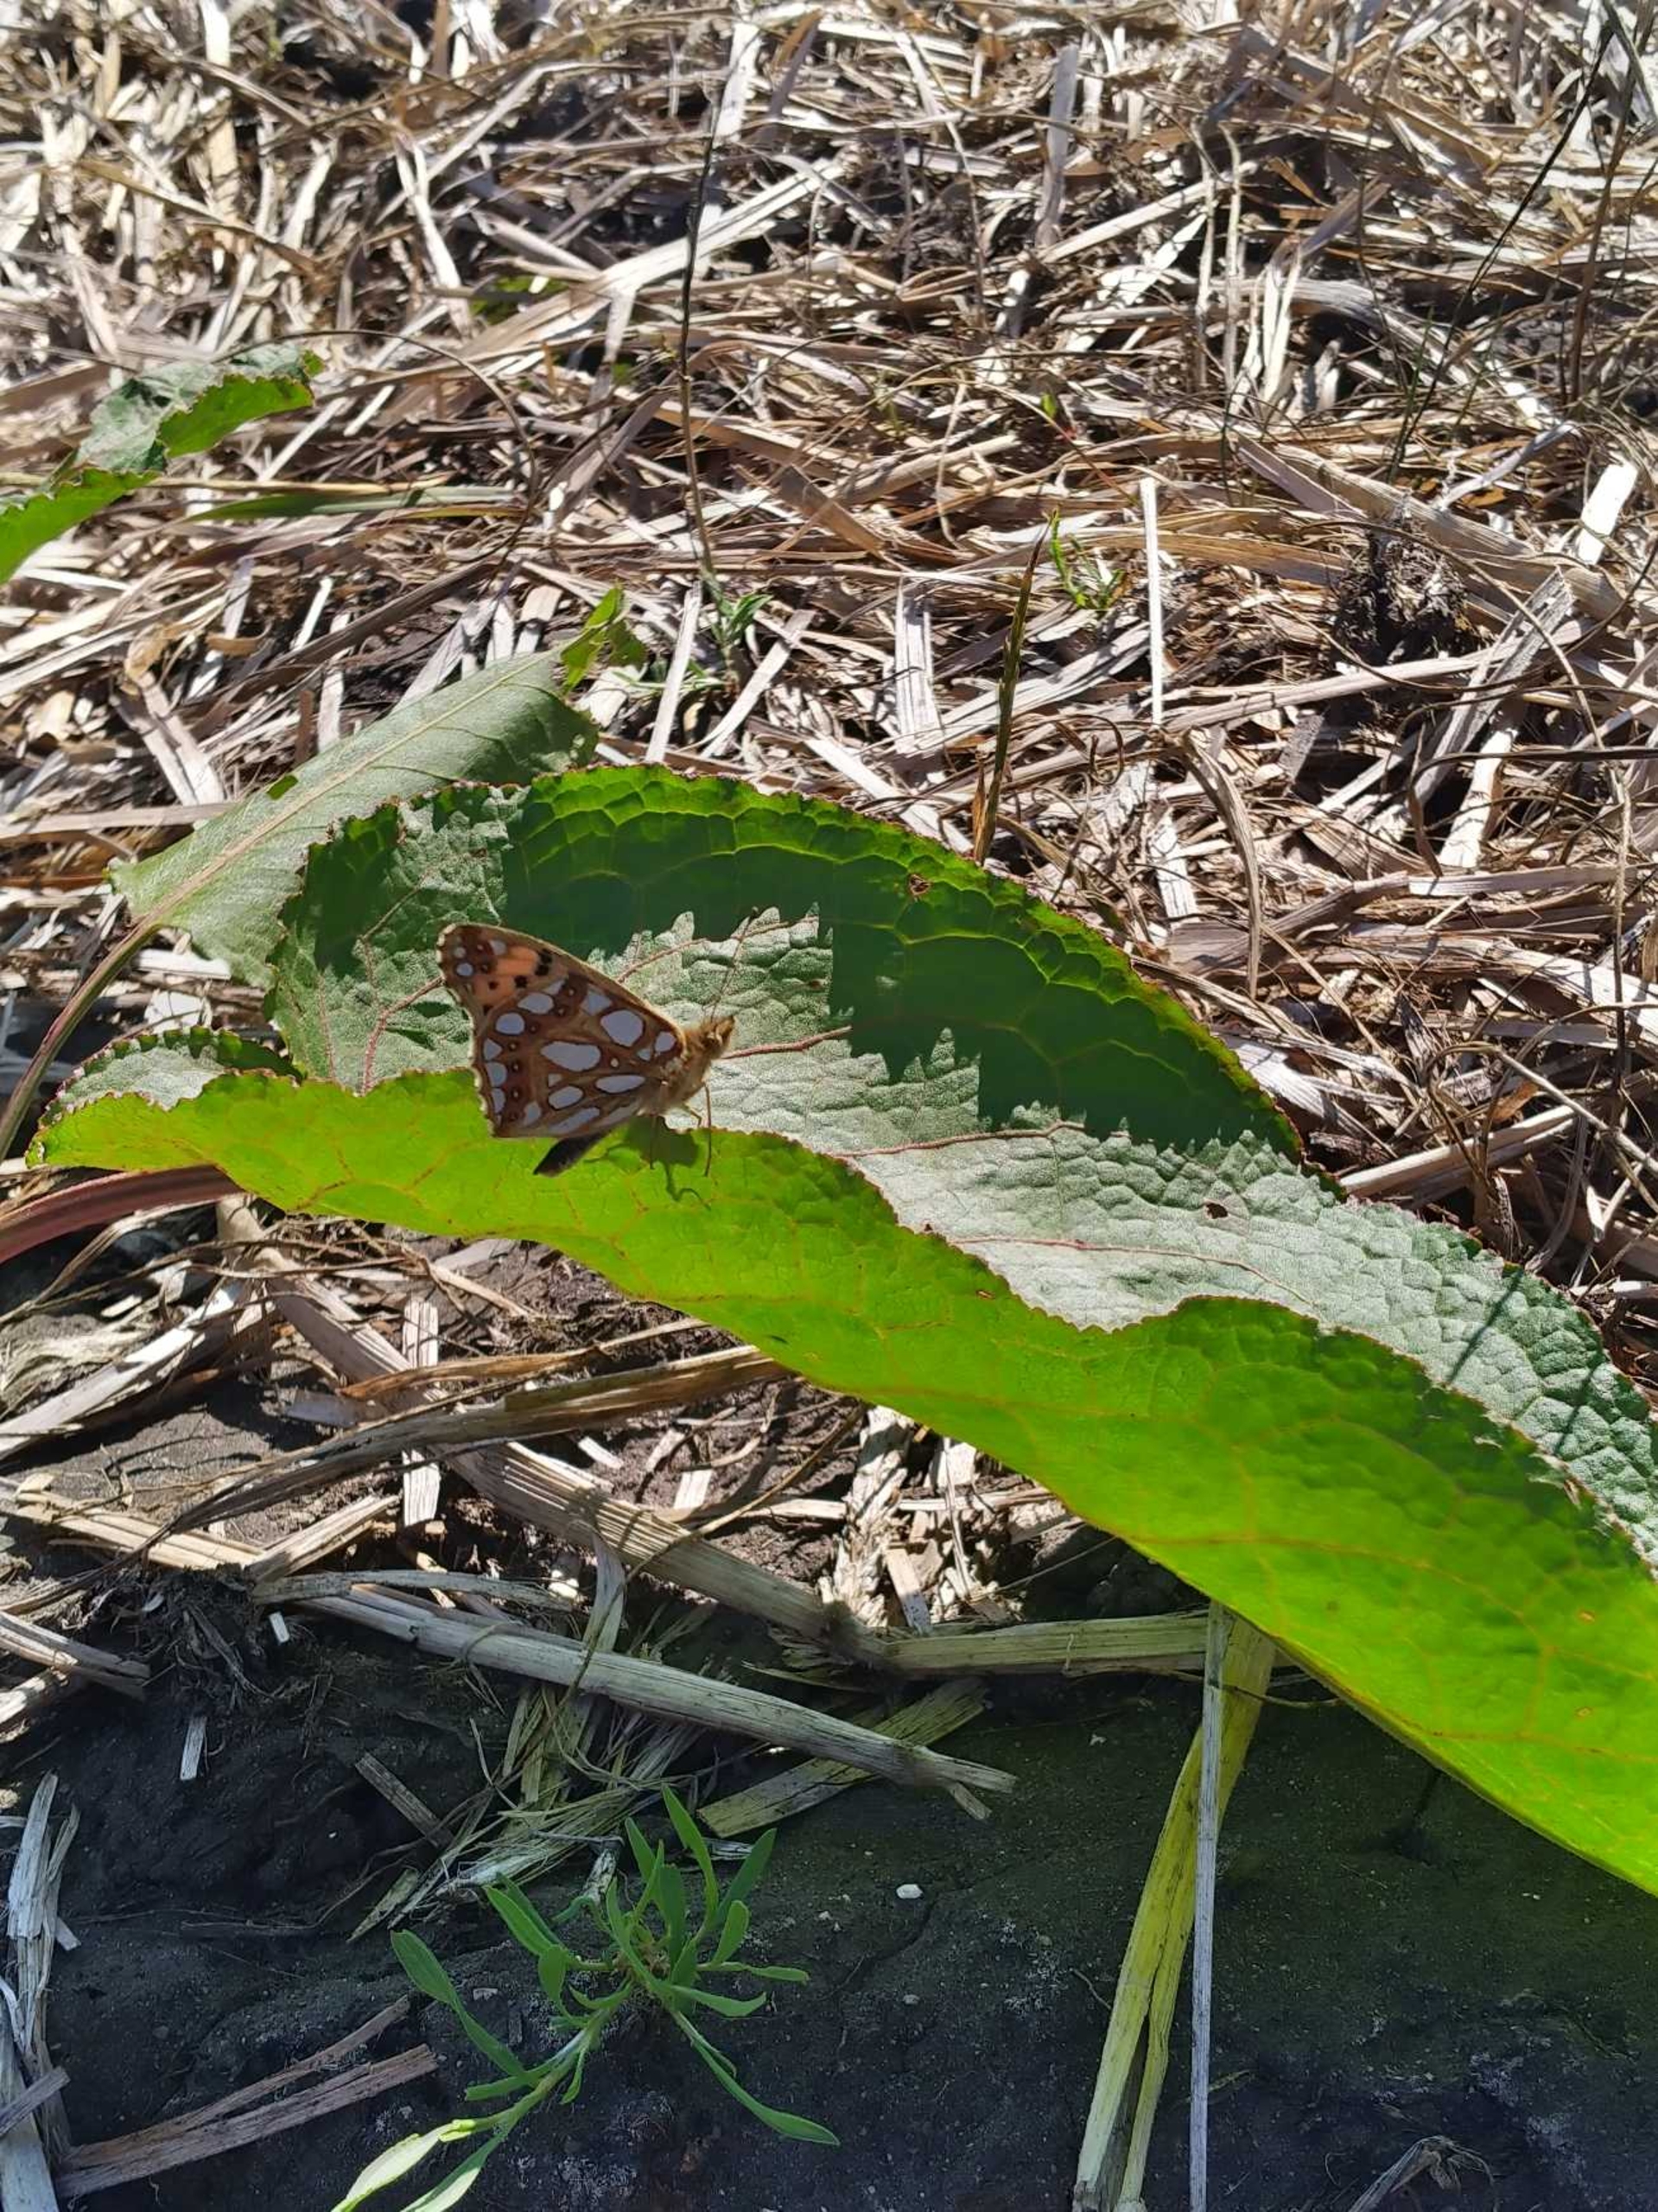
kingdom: Animalia
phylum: Arthropoda
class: Insecta
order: Lepidoptera
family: Nymphalidae
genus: Issoria
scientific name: Issoria lathonia
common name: Storplettet perlemorsommerfugl
